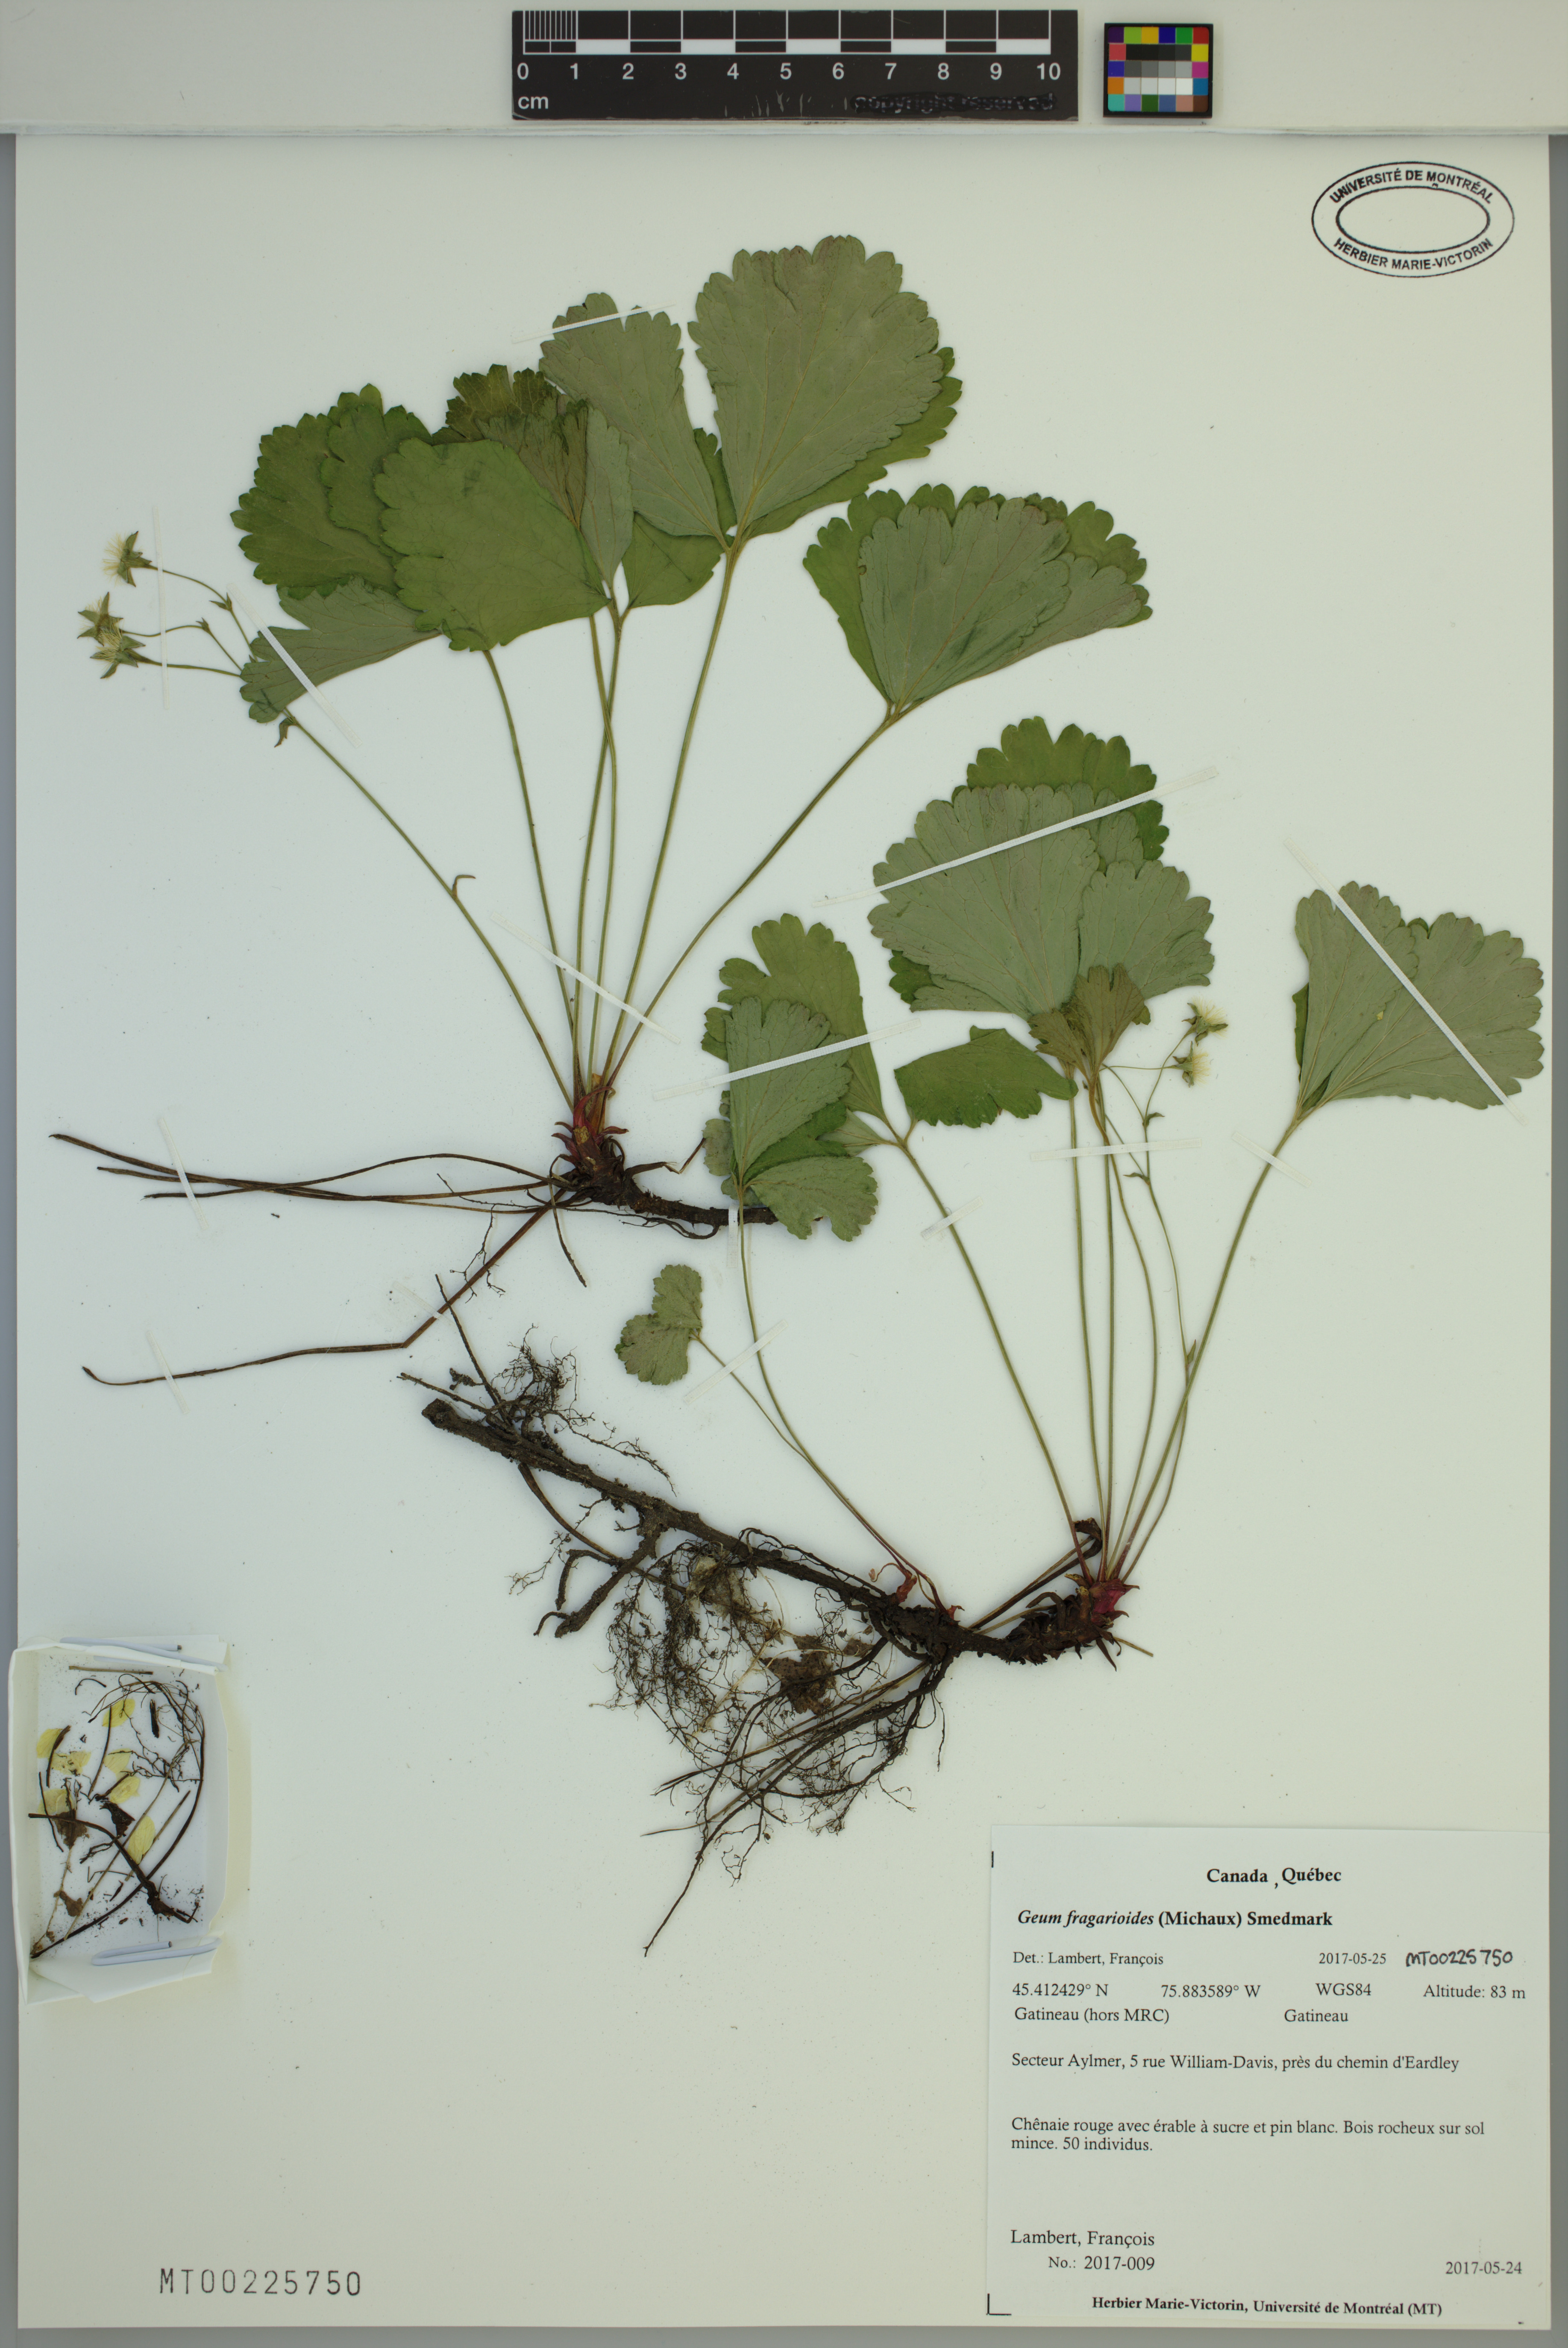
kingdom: Plantae
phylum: Tracheophyta
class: Magnoliopsida
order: Rosales
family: Rosaceae
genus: Geum
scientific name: Geum fragarioides
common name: Appalachian barren strawberry
